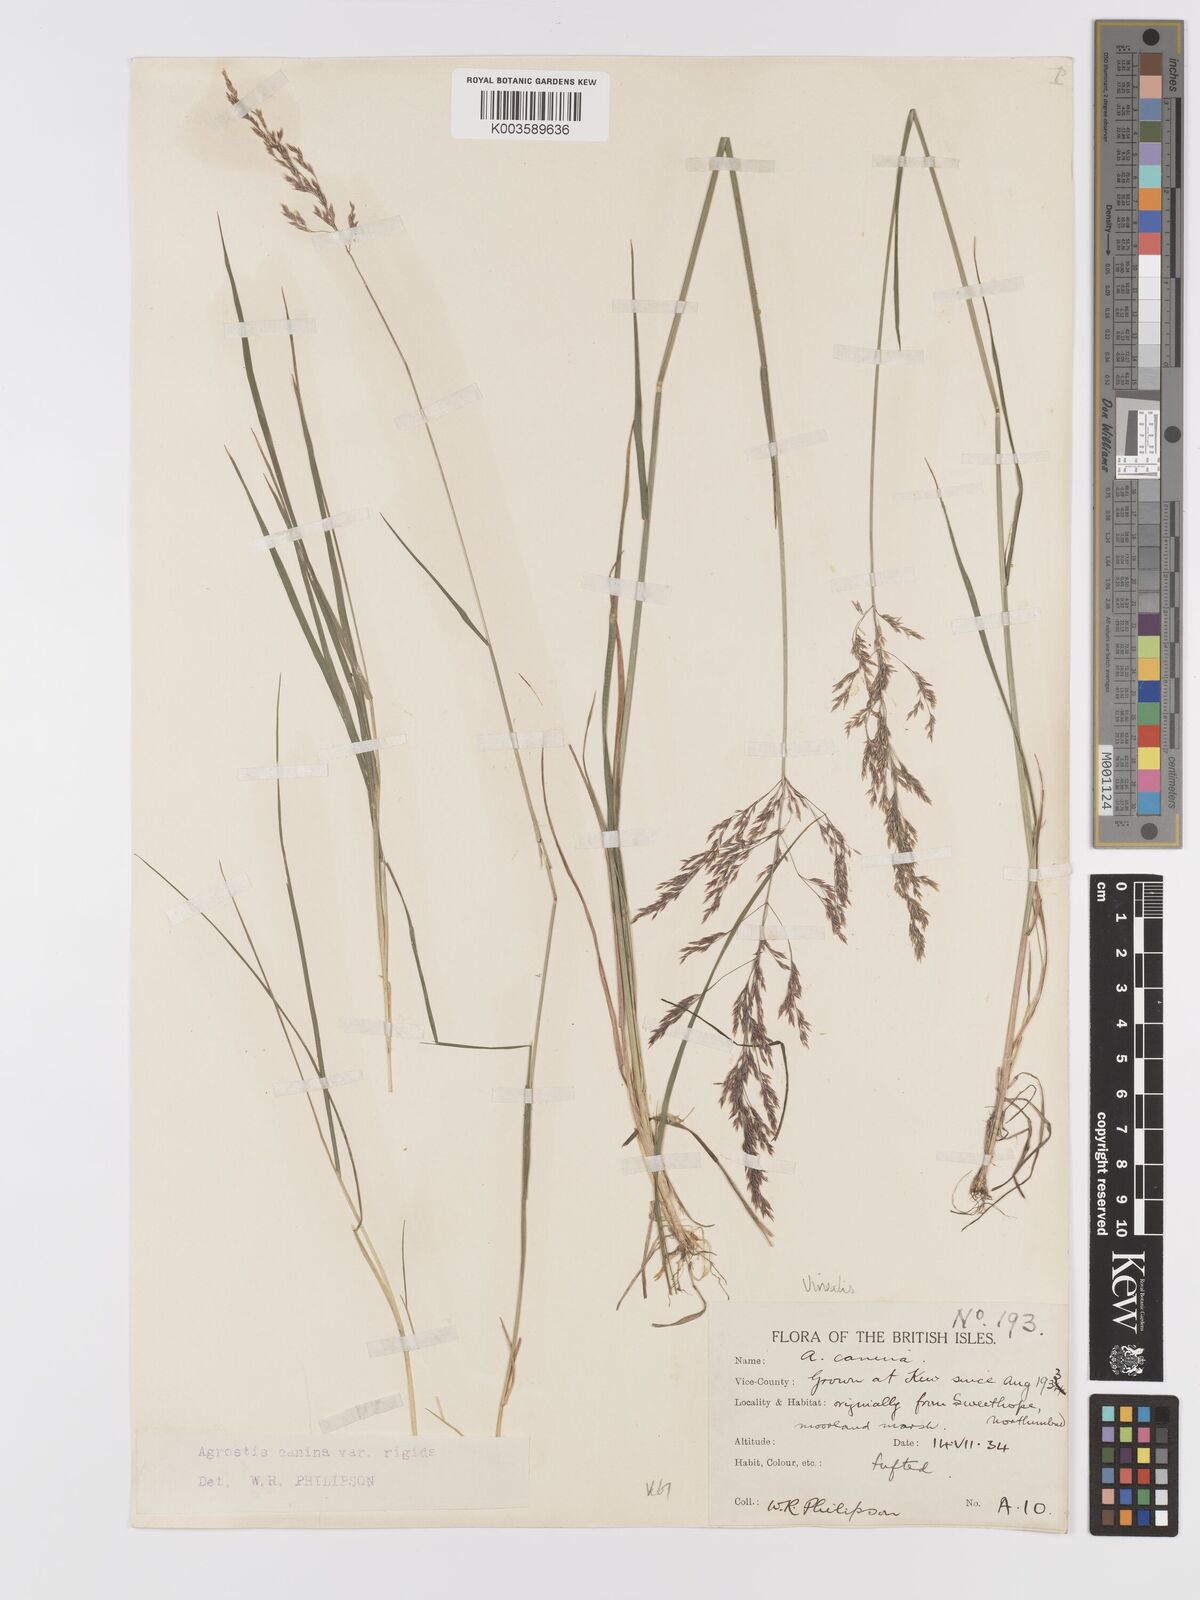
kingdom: Plantae
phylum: Tracheophyta
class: Liliopsida
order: Poales
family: Poaceae
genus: Agrostis
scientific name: Agrostis
